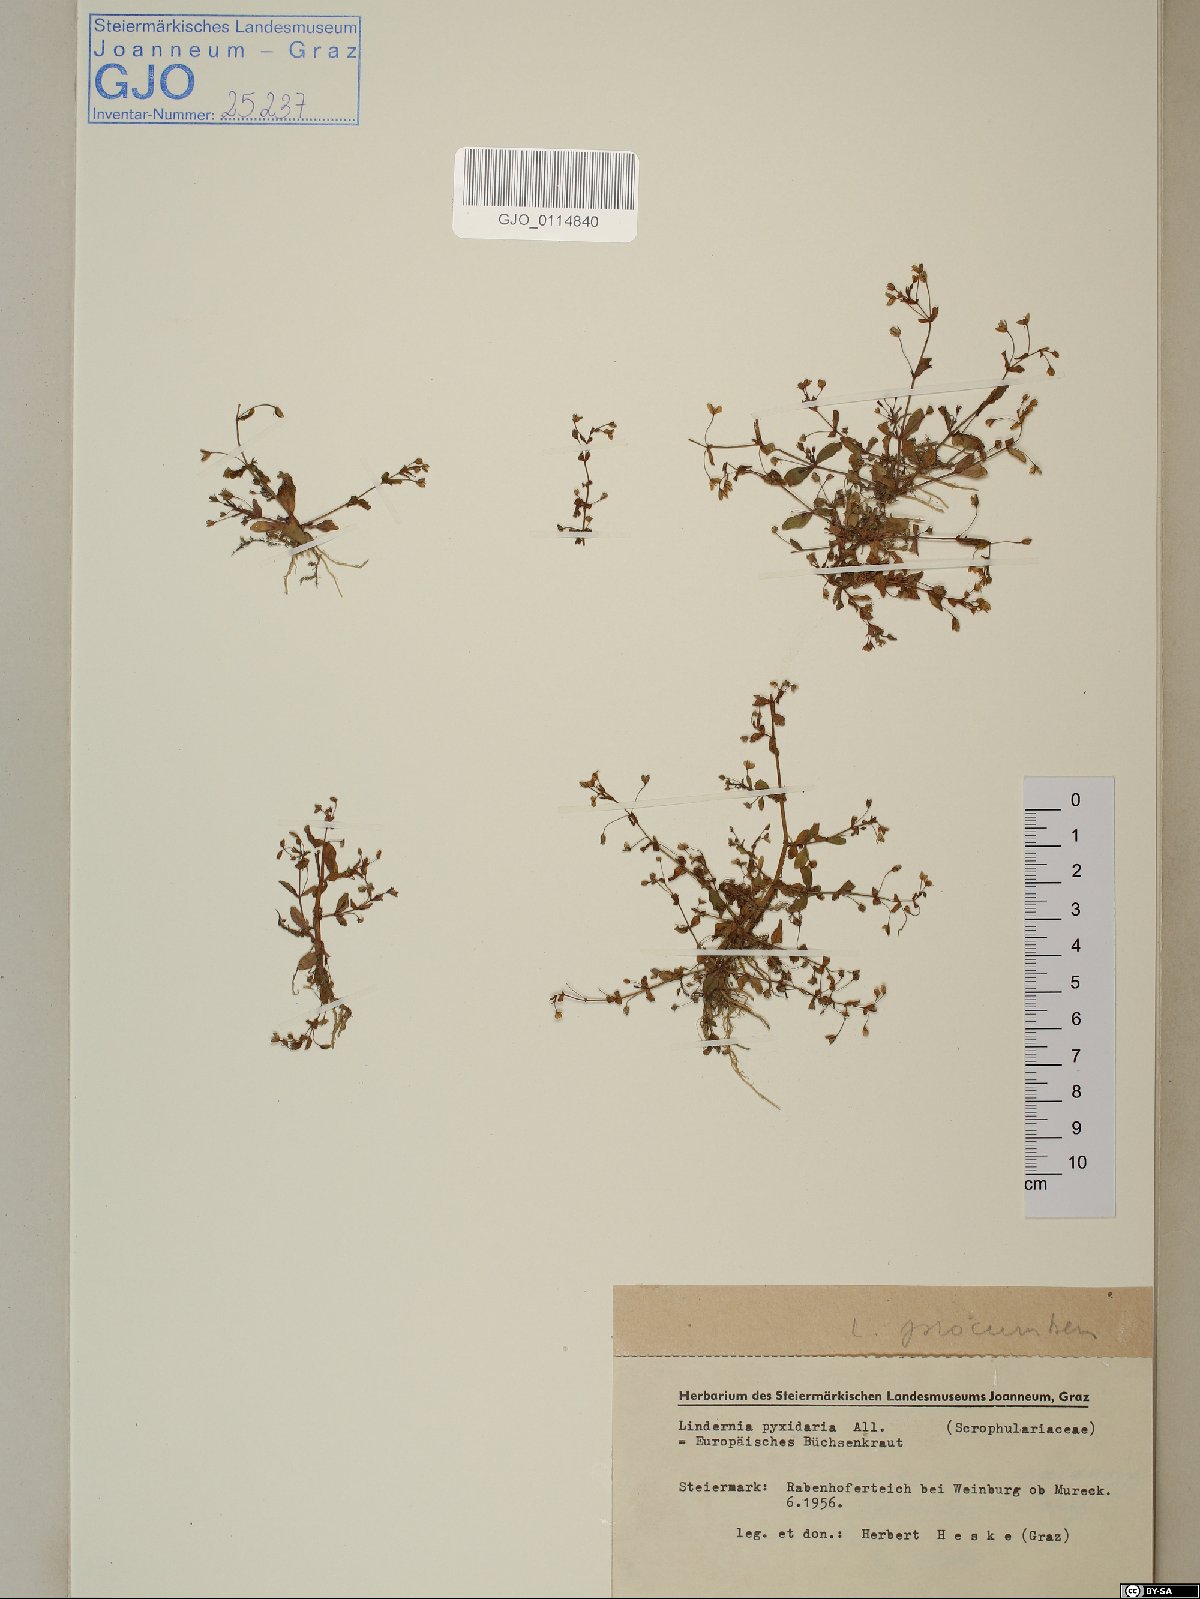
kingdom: Plantae
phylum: Tracheophyta
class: Magnoliopsida
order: Lamiales
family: Linderniaceae
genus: Lindernia
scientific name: Lindernia dubia
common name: Annual false pimpernel
